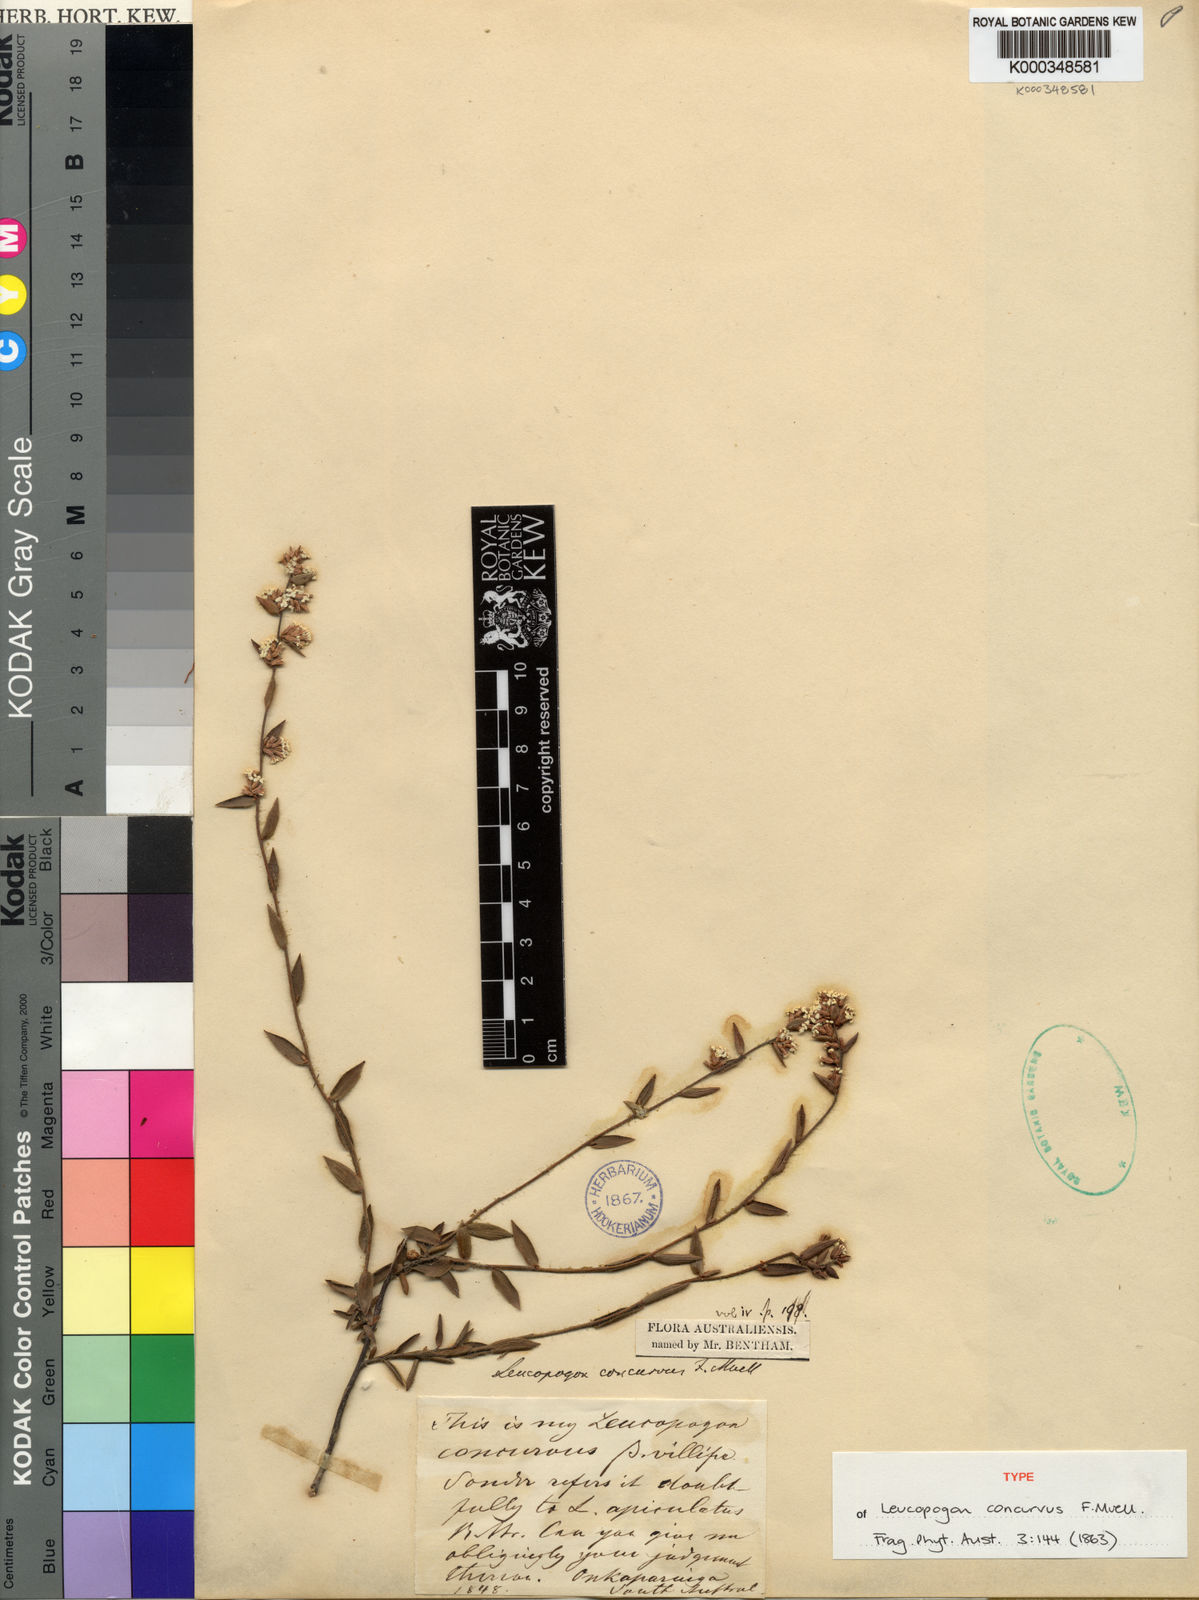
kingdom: Plantae
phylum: Tracheophyta
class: Magnoliopsida
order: Ericales
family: Ericaceae
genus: Leucopogon
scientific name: Leucopogon concurvus
